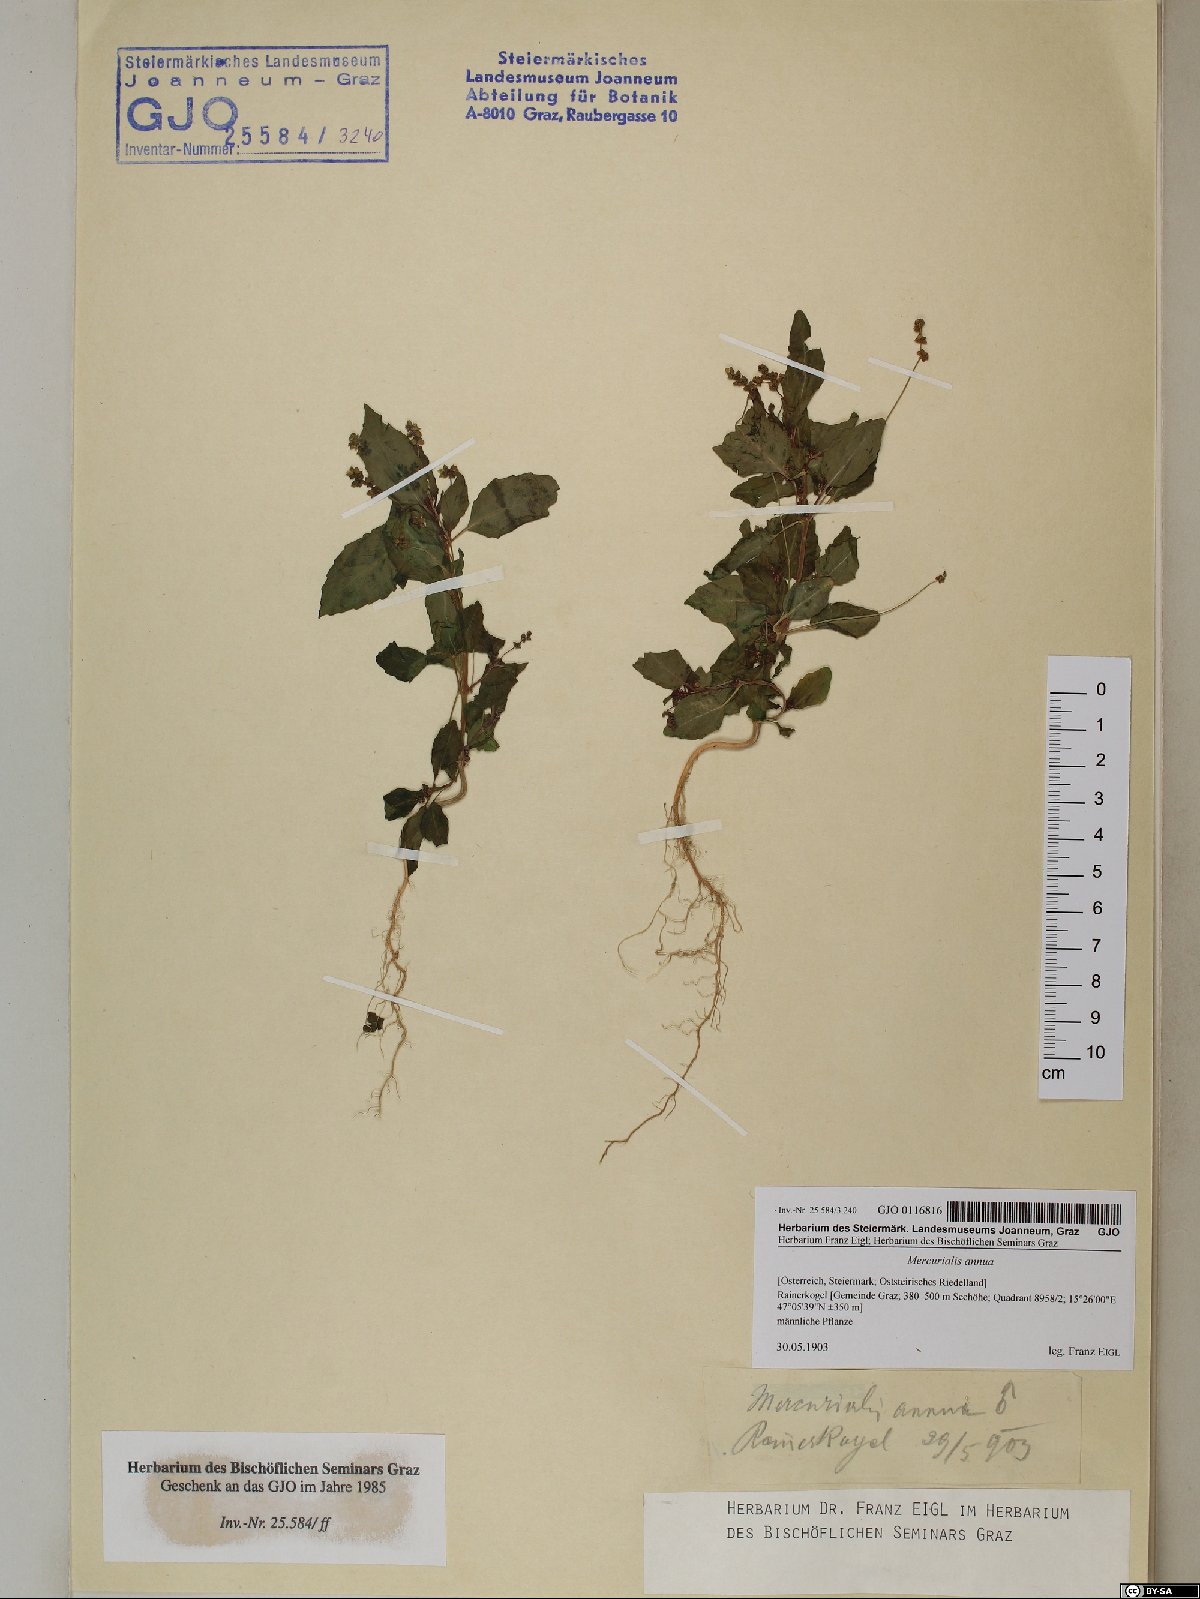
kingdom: Plantae
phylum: Tracheophyta
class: Magnoliopsida
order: Malpighiales
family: Euphorbiaceae
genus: Mercurialis
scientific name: Mercurialis annua
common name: Annual mercury
